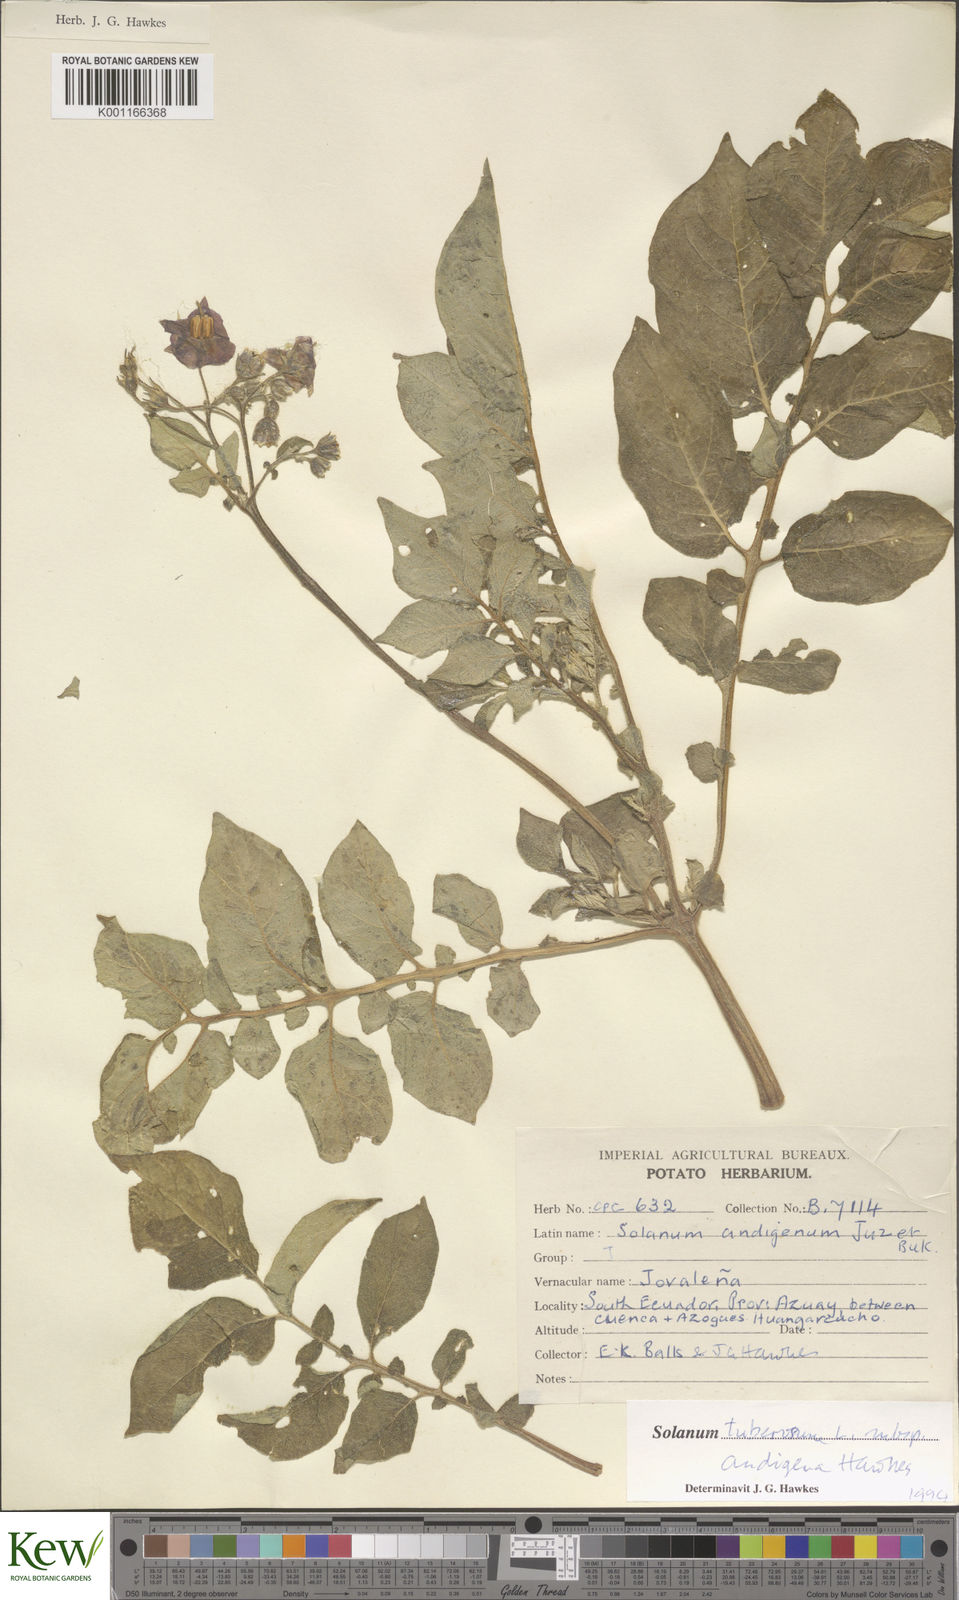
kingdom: Plantae
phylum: Tracheophyta
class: Magnoliopsida
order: Solanales
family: Solanaceae
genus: Solanum
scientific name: Solanum tuberosum
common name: Potato
